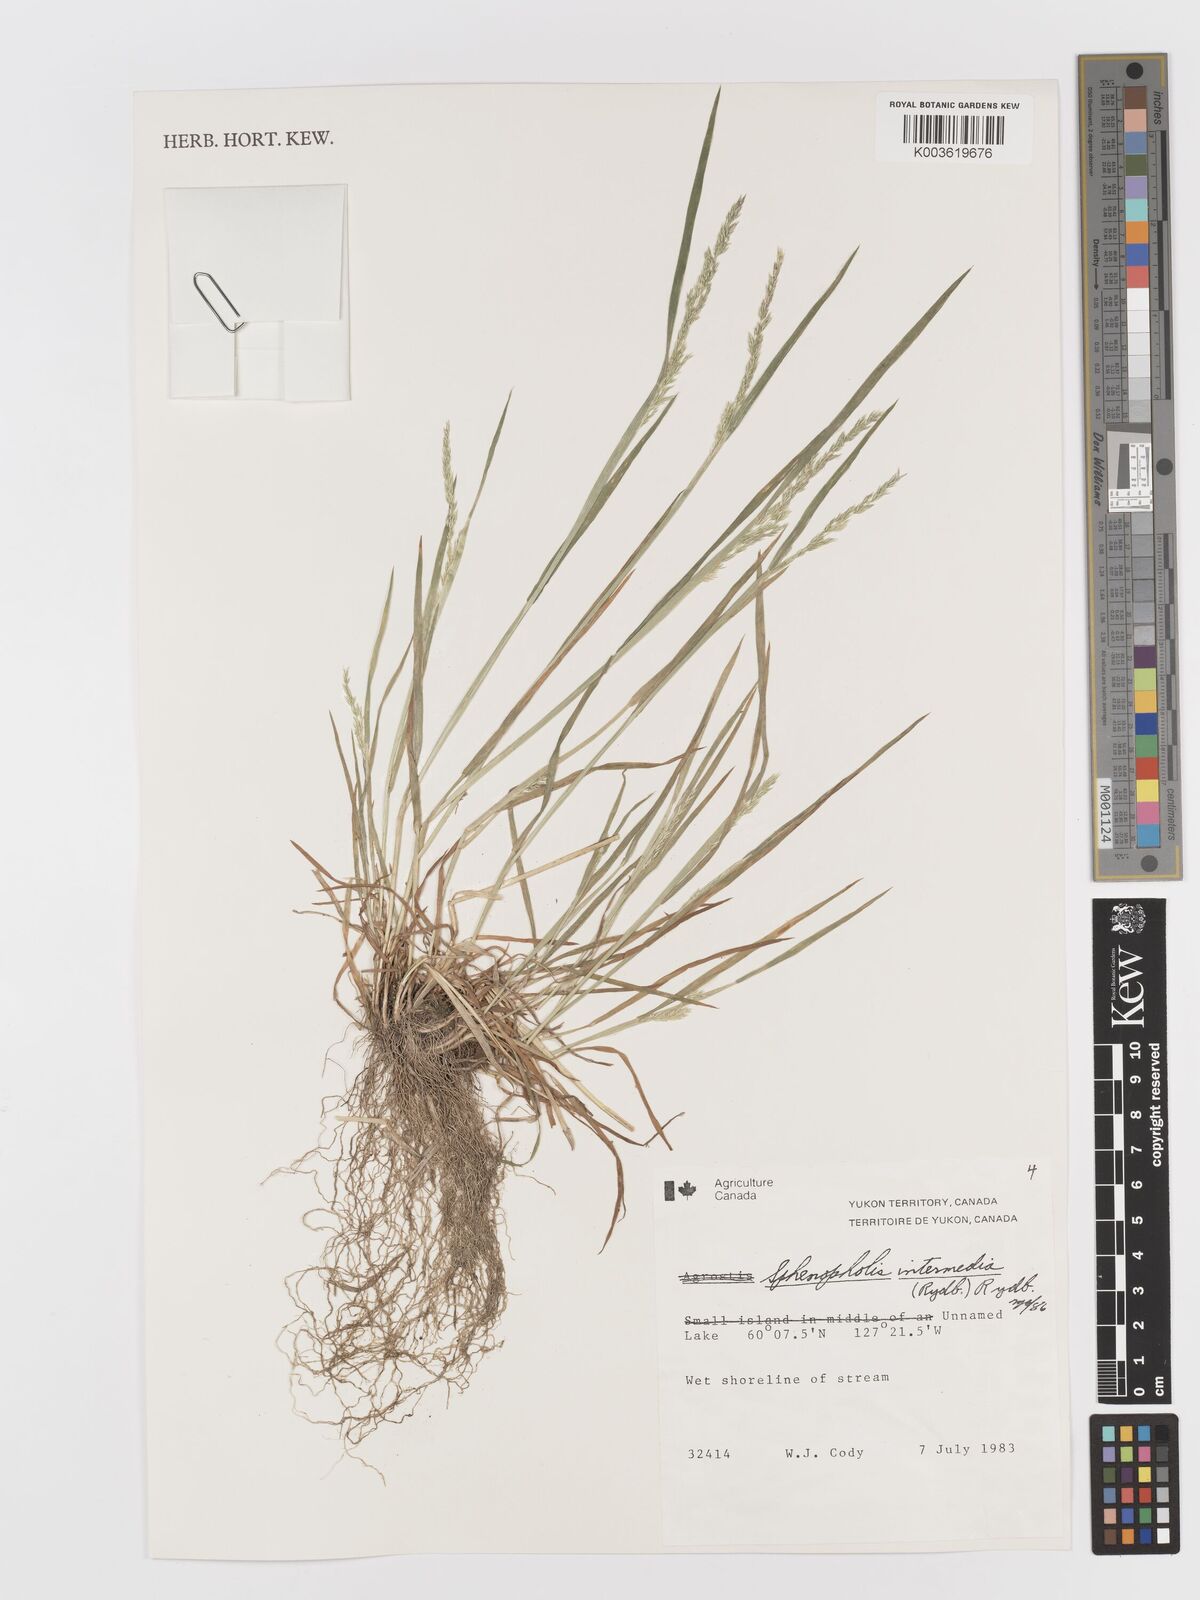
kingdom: Plantae
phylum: Tracheophyta
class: Liliopsida
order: Poales
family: Poaceae
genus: Sphenopholis
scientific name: Sphenopholis obtusata
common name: Prairie grass
